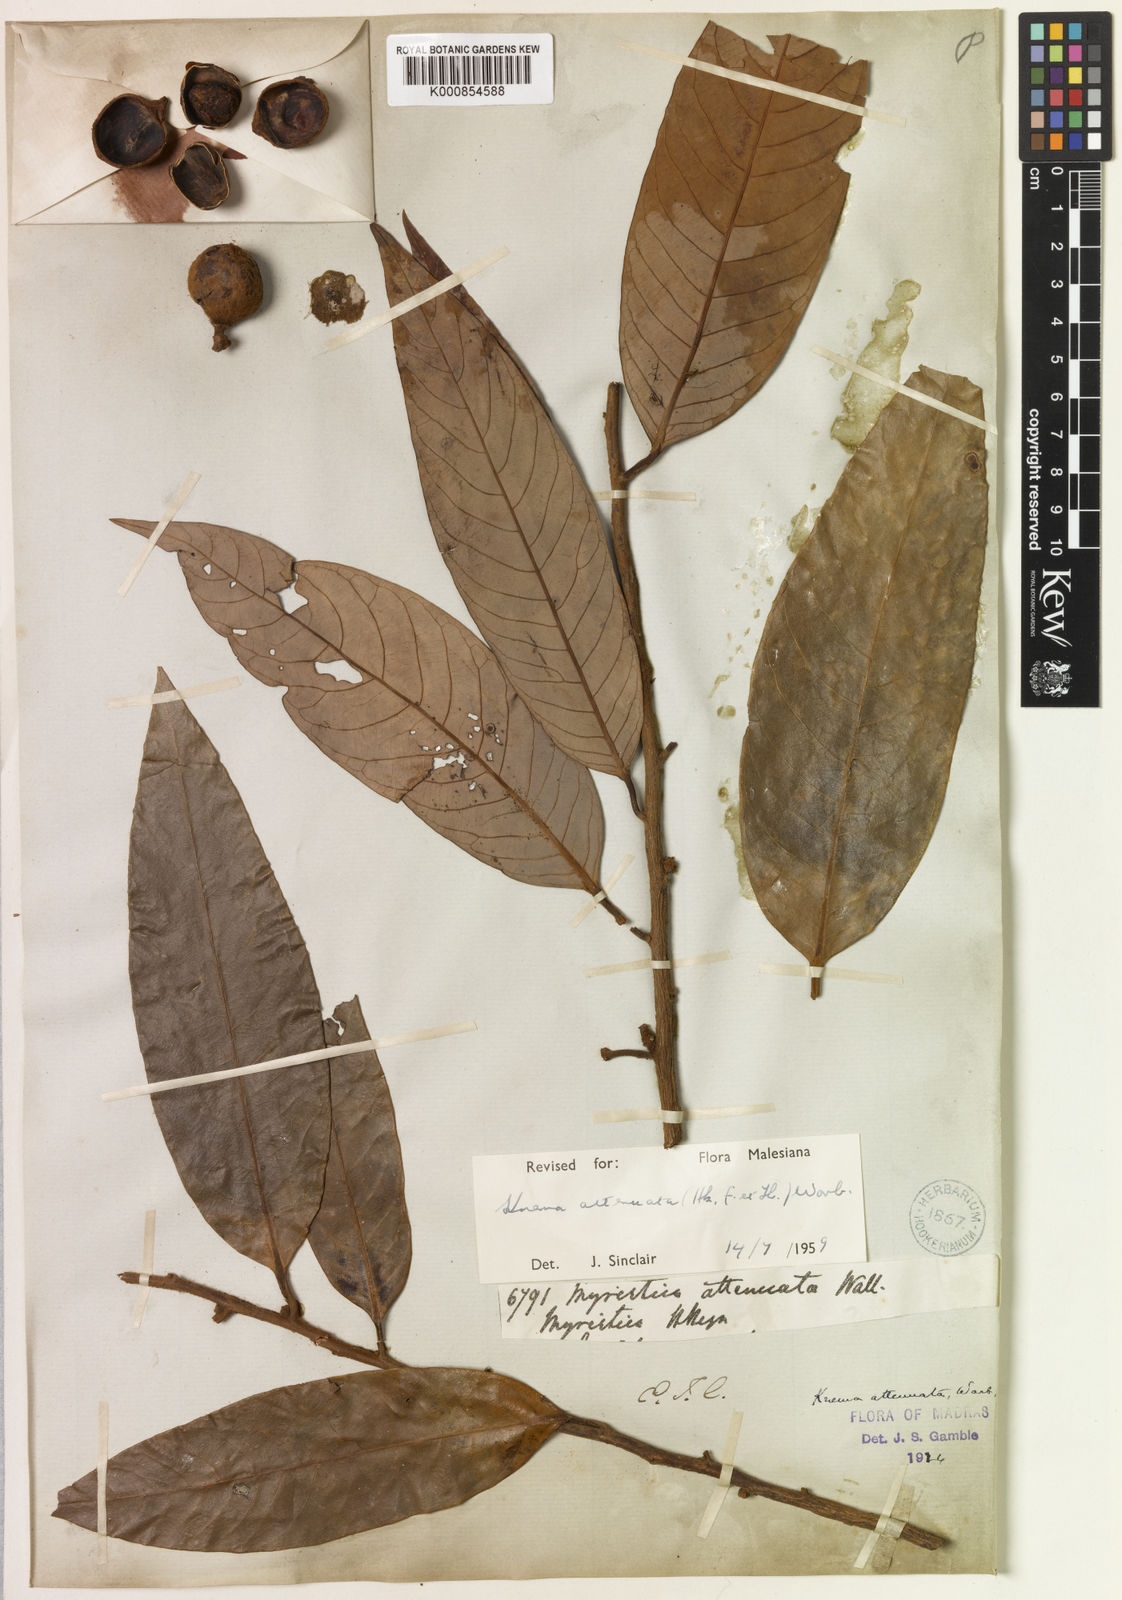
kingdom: Plantae
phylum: Tracheophyta
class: Magnoliopsida
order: Magnoliales
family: Myristicaceae
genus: Knema
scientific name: Knema attenuata
